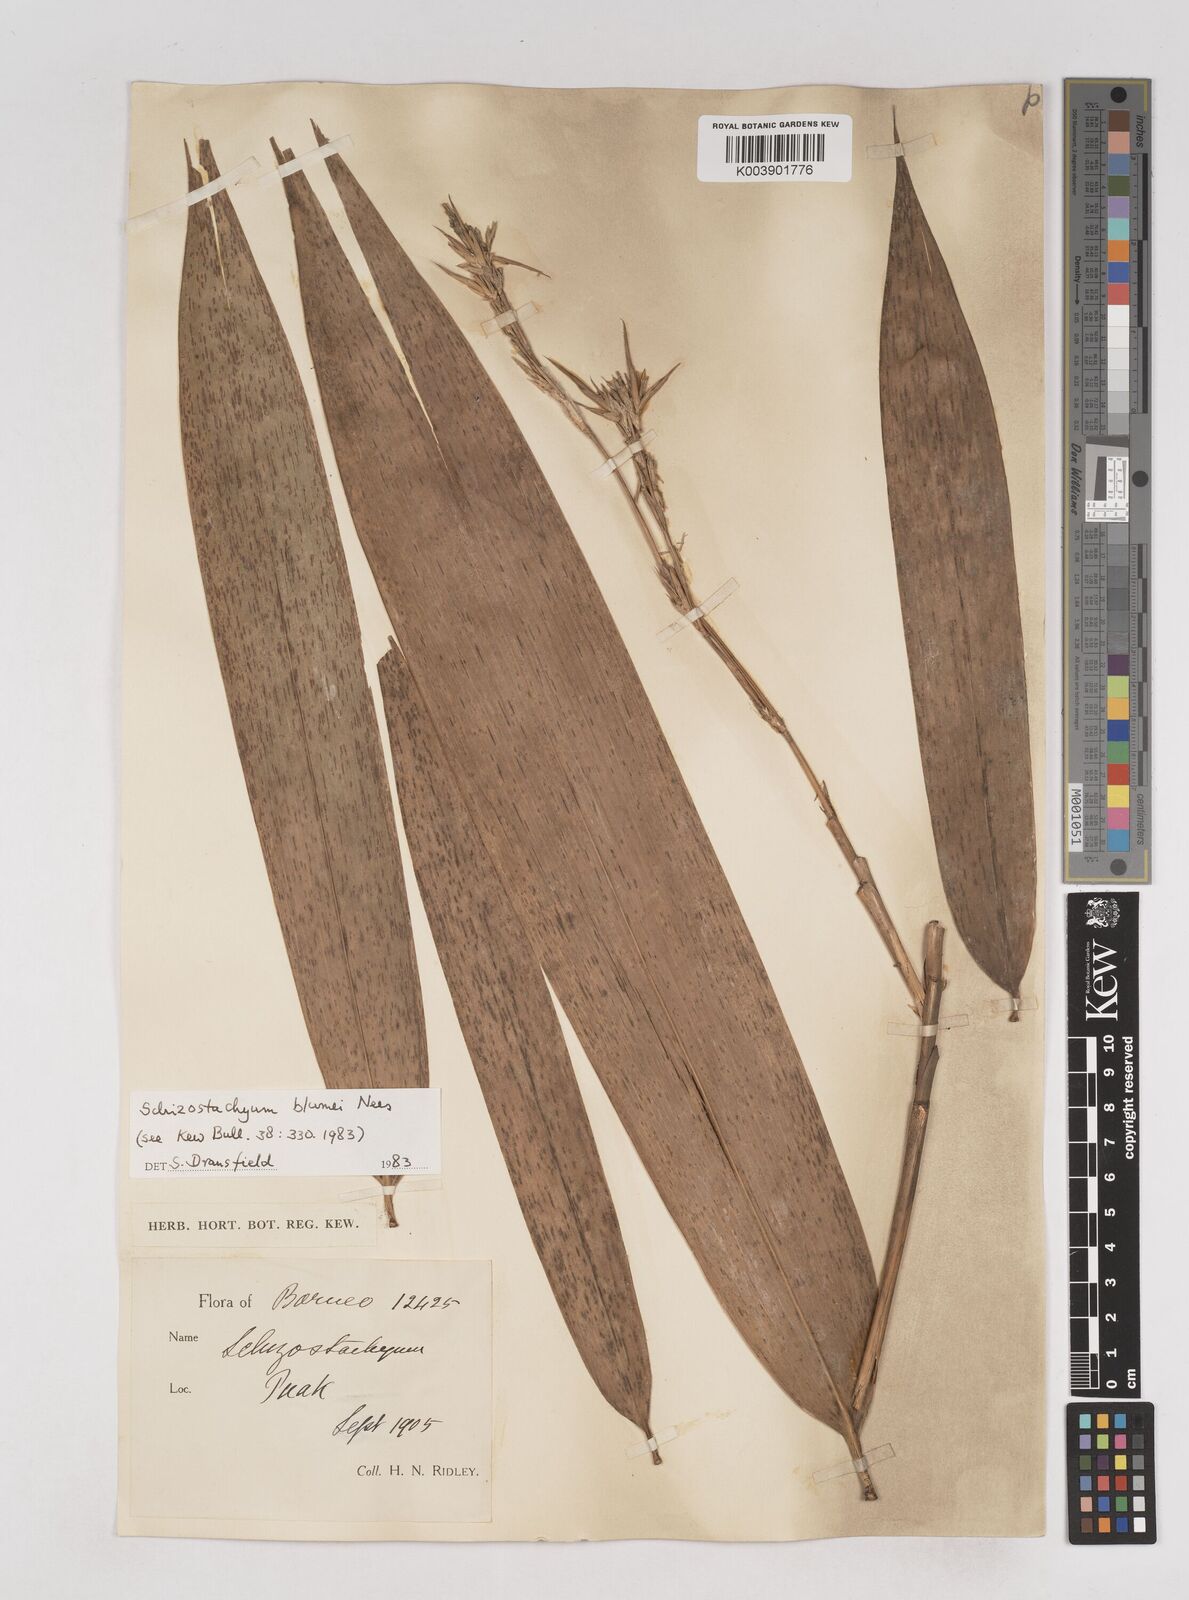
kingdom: Plantae
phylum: Tracheophyta
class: Liliopsida
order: Poales
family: Poaceae
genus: Schizostachyum
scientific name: Schizostachyum blumei
